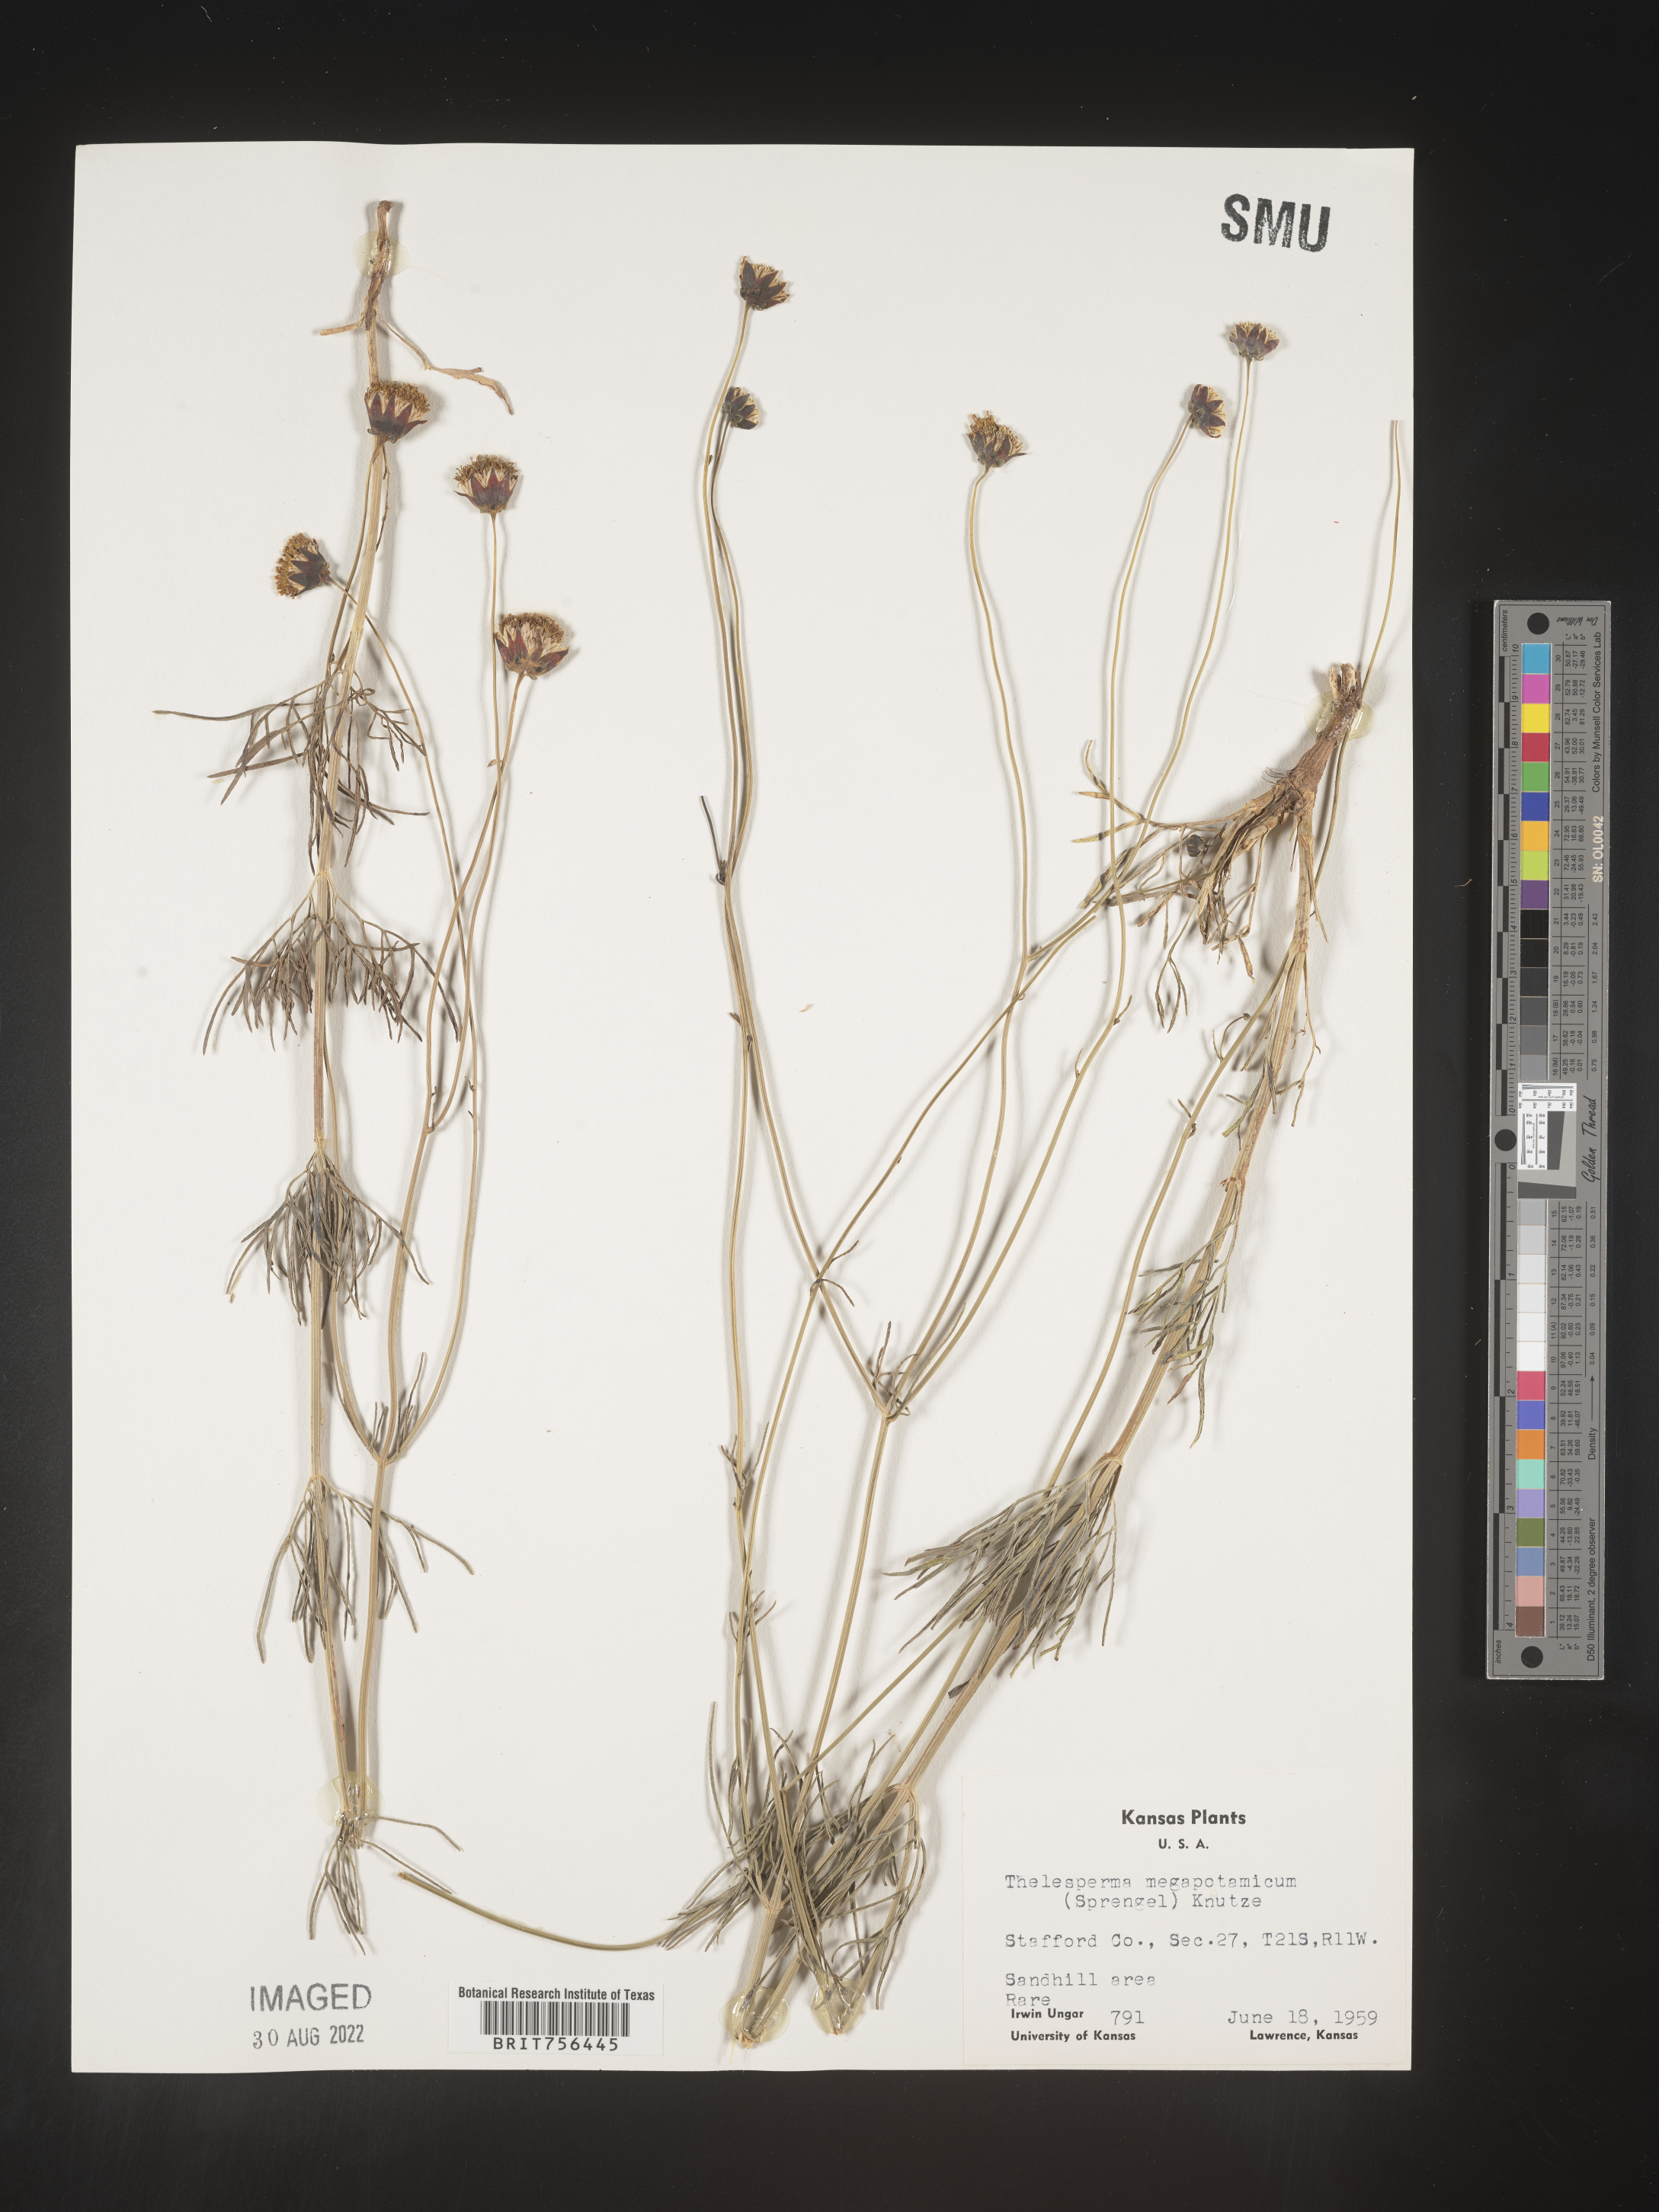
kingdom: Plantae
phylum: Tracheophyta
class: Magnoliopsida
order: Asterales
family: Asteraceae
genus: Thelesperma
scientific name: Thelesperma megapotamicum
